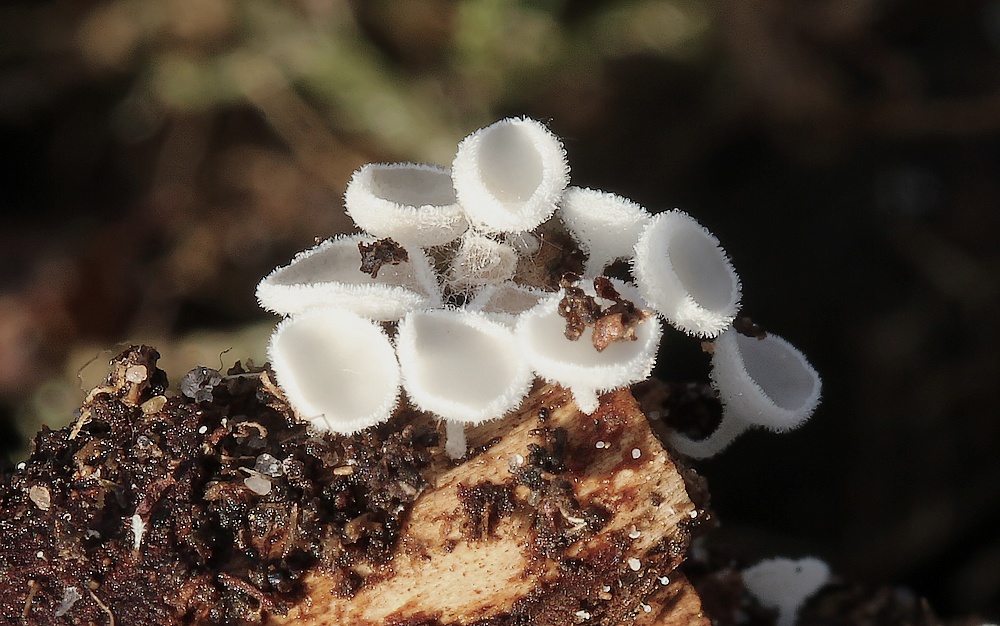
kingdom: Fungi
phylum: Ascomycota
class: Leotiomycetes
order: Helotiales
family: Lachnaceae
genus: Lachnum
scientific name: Lachnum
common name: frynseskive
